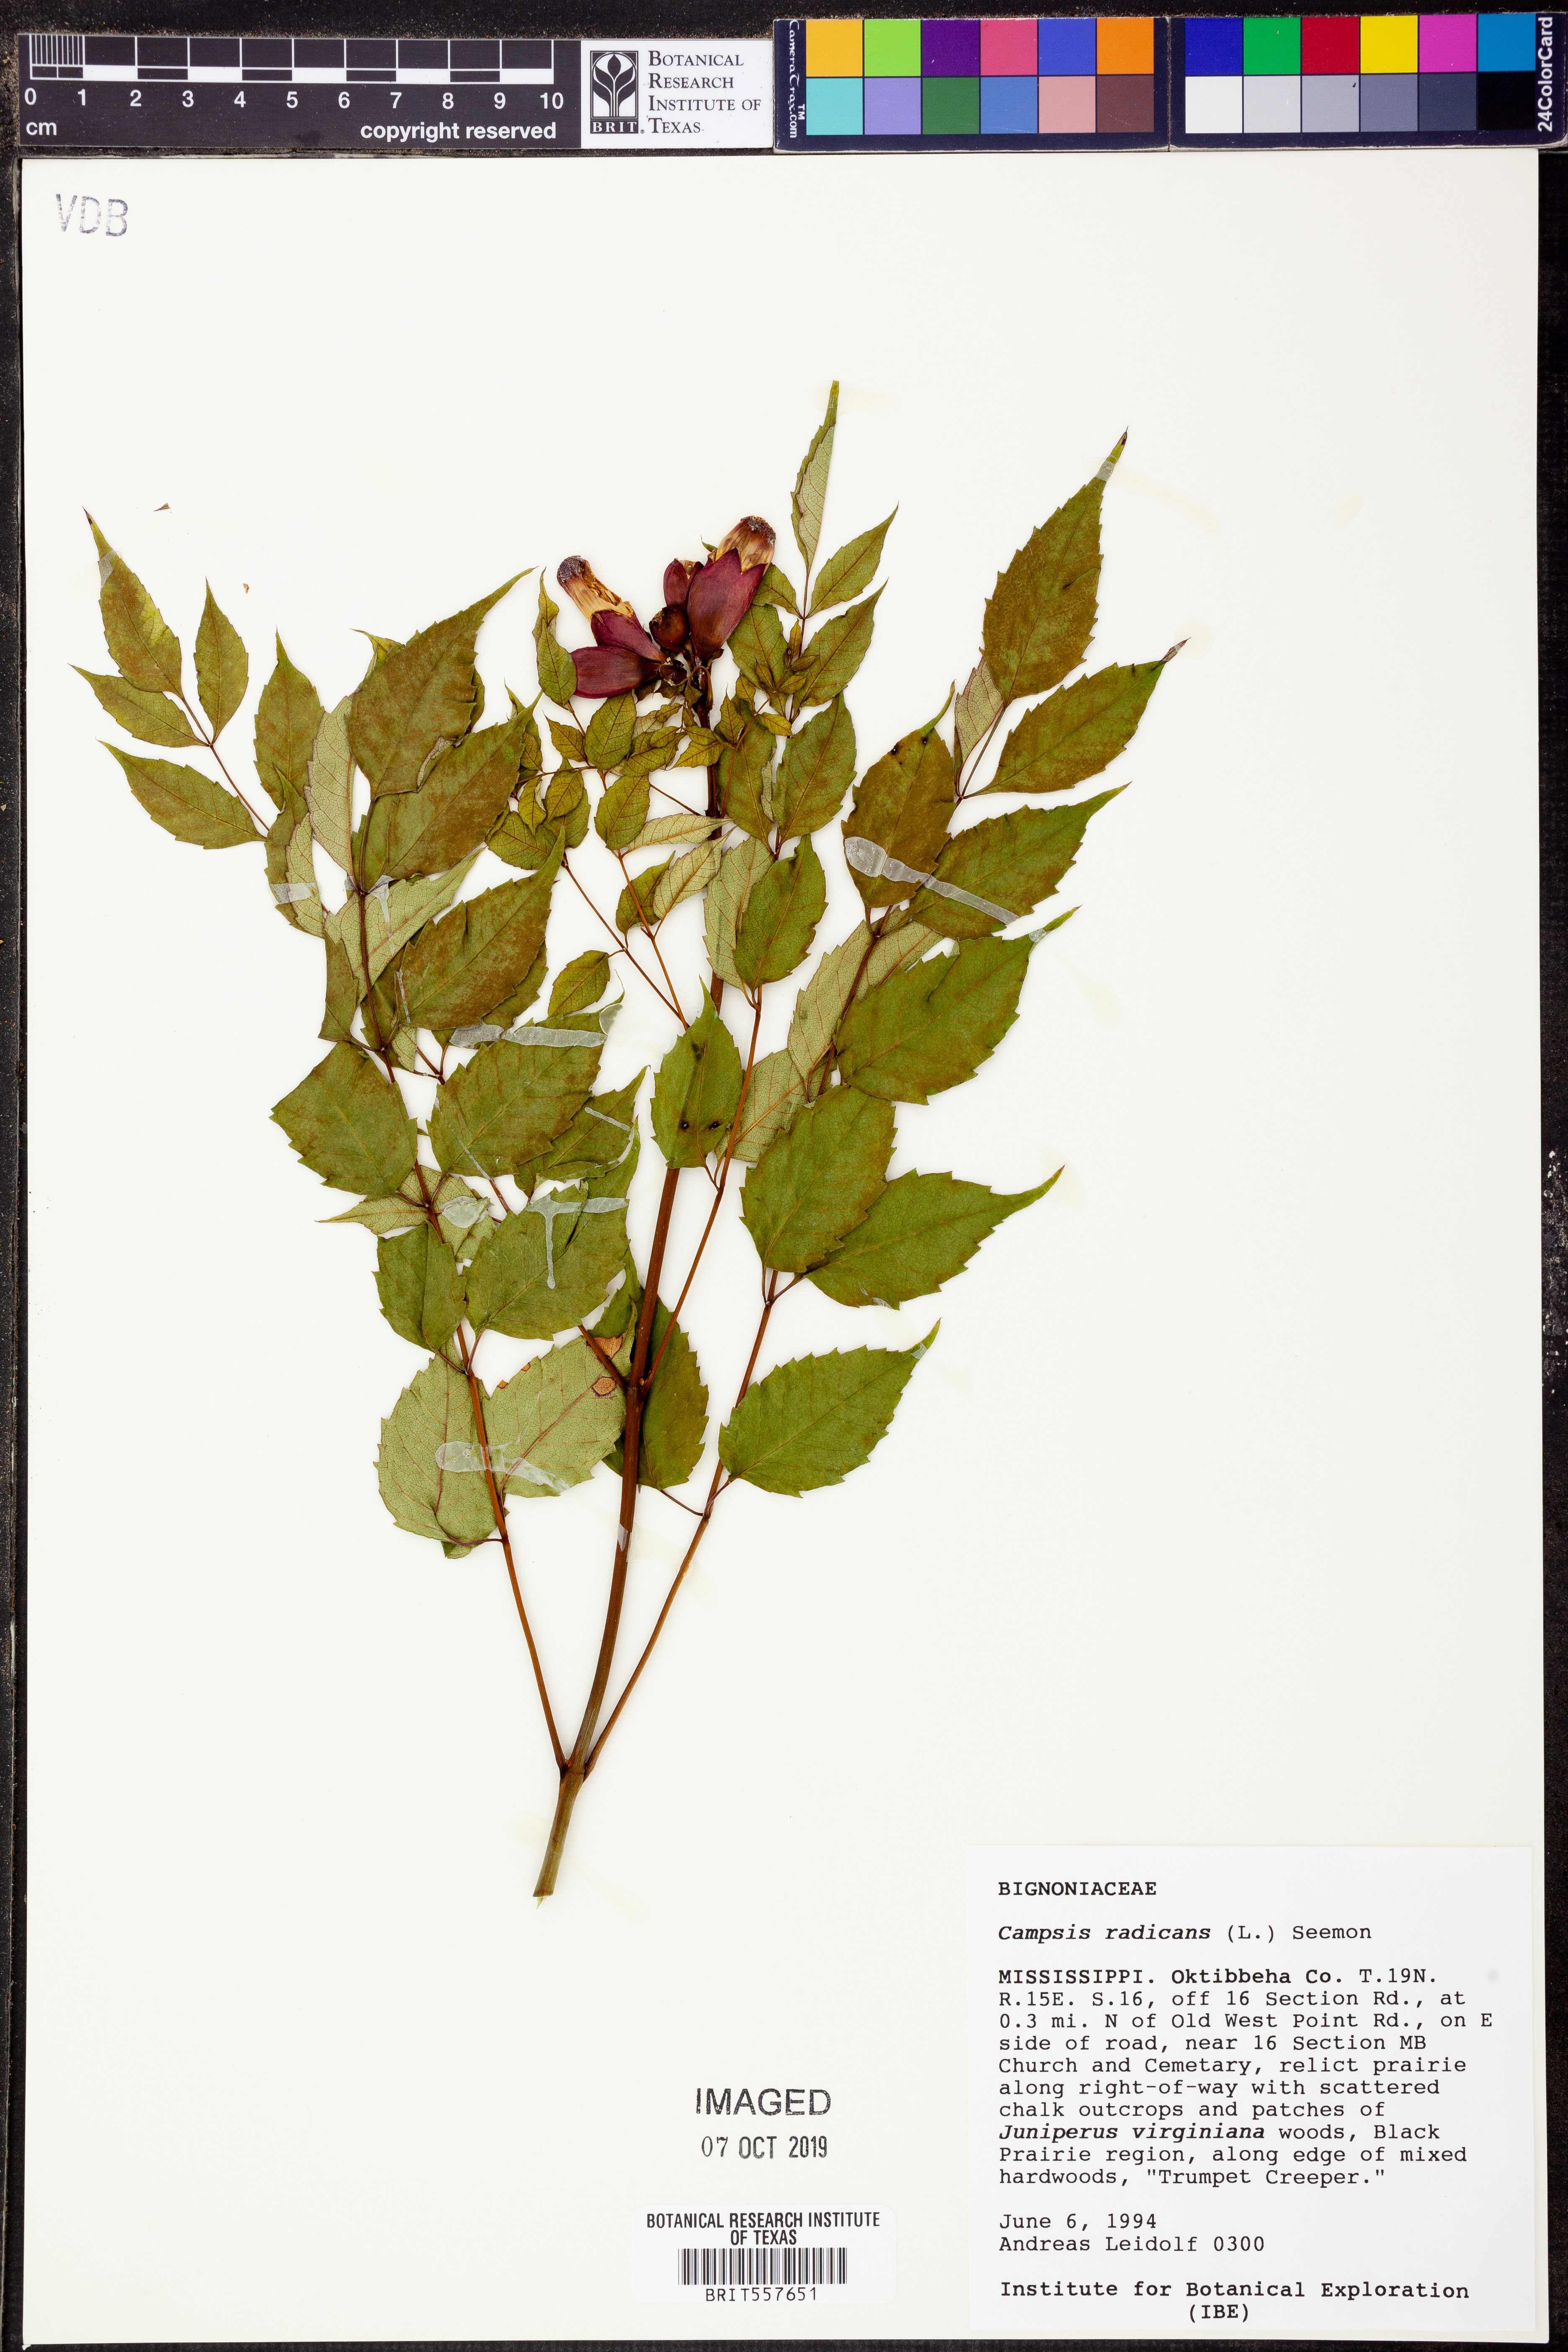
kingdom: Plantae
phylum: Tracheophyta
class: Magnoliopsida
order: Lamiales
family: Bignoniaceae
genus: Campsis
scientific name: Campsis radicans
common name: Trumpet-creeper
